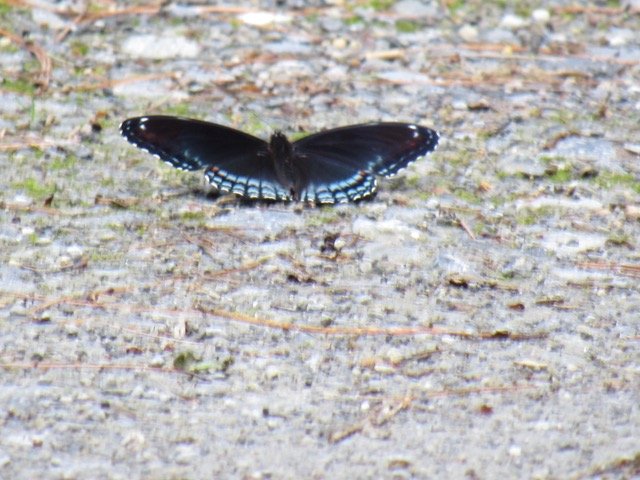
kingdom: Animalia
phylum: Arthropoda
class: Insecta
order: Lepidoptera
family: Nymphalidae
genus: Limenitis
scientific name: Limenitis
